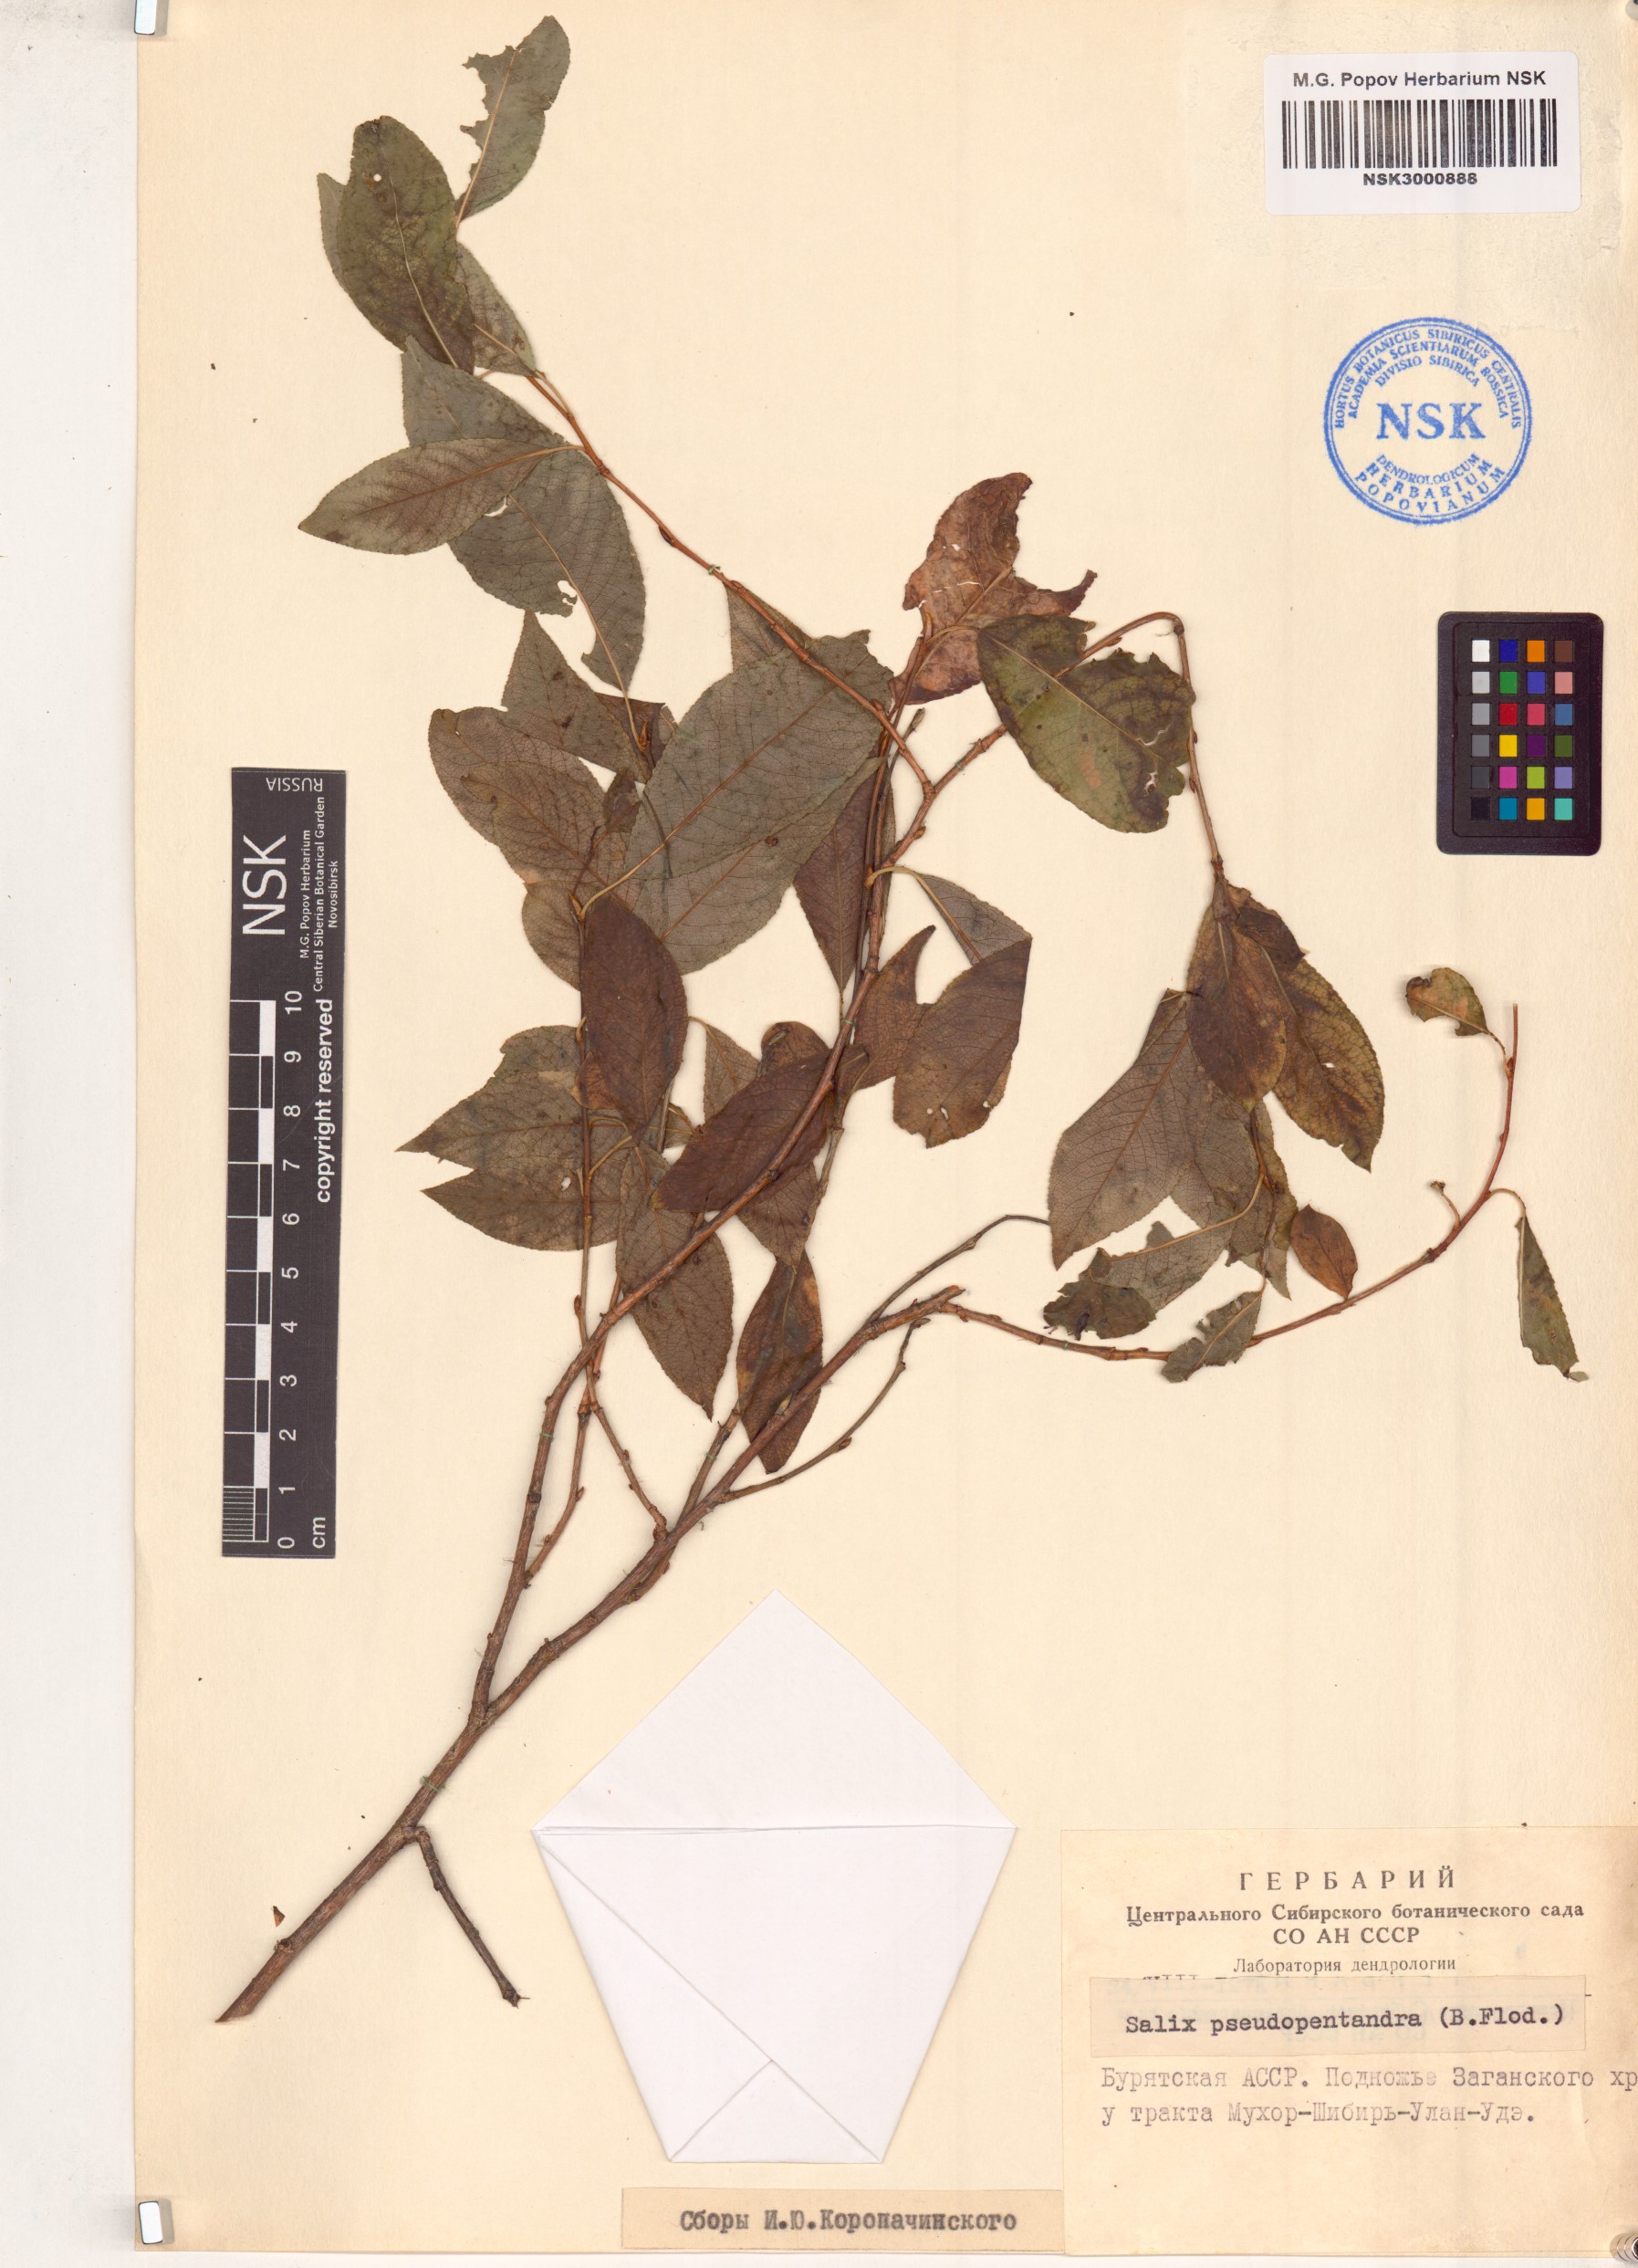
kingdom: Plantae
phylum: Tracheophyta
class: Magnoliopsida
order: Malpighiales
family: Salicaceae
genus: Salix
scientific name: Salix pseudopentandra
